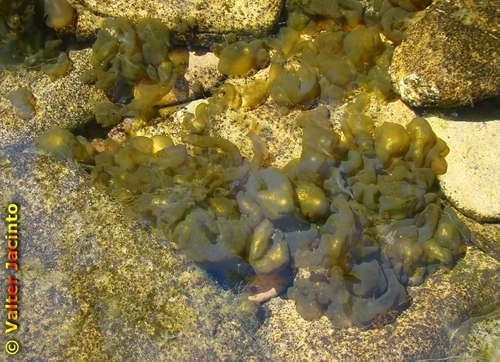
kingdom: Bacteria
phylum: Cyanobacteria
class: Cyanobacteriia
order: Cyanobacteriales
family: Nostocaceae
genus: Nostoc
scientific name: Nostoc commune
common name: Star jelly
